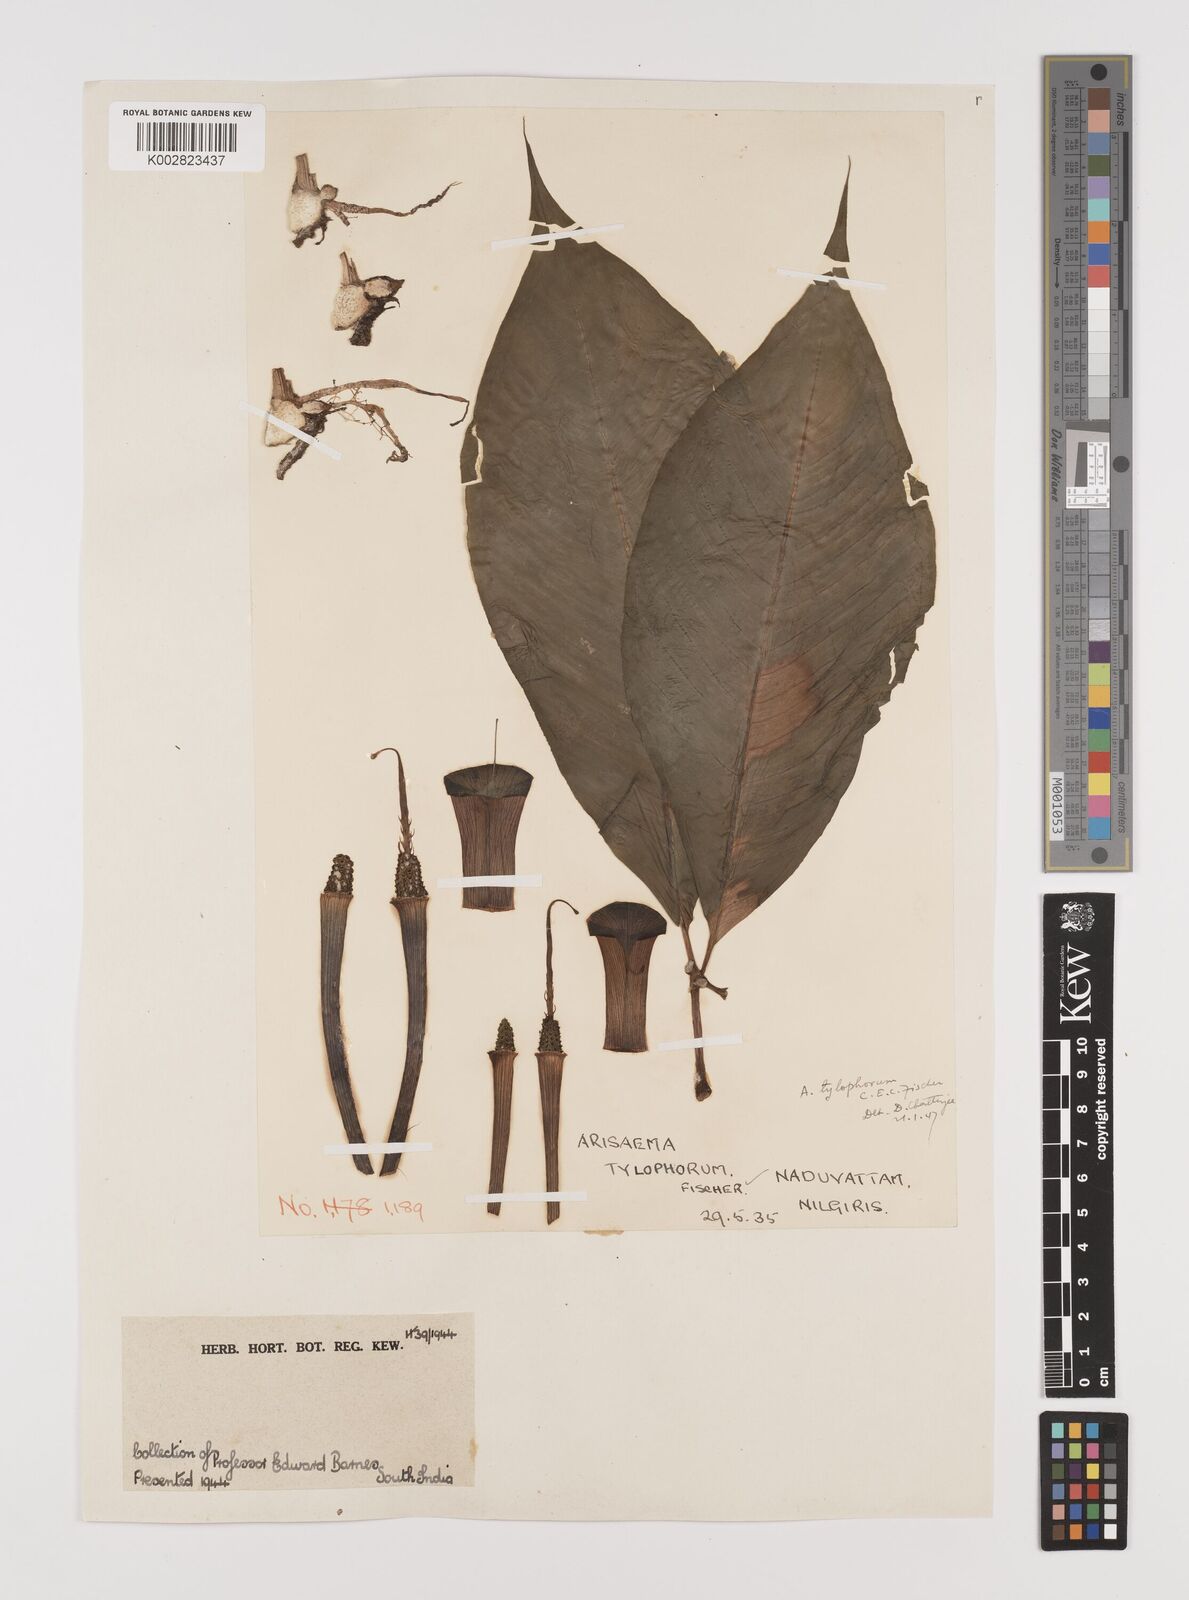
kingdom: Plantae
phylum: Tracheophyta
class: Liliopsida
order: Alismatales
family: Araceae
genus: Arisaema
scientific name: Arisaema barnesii
